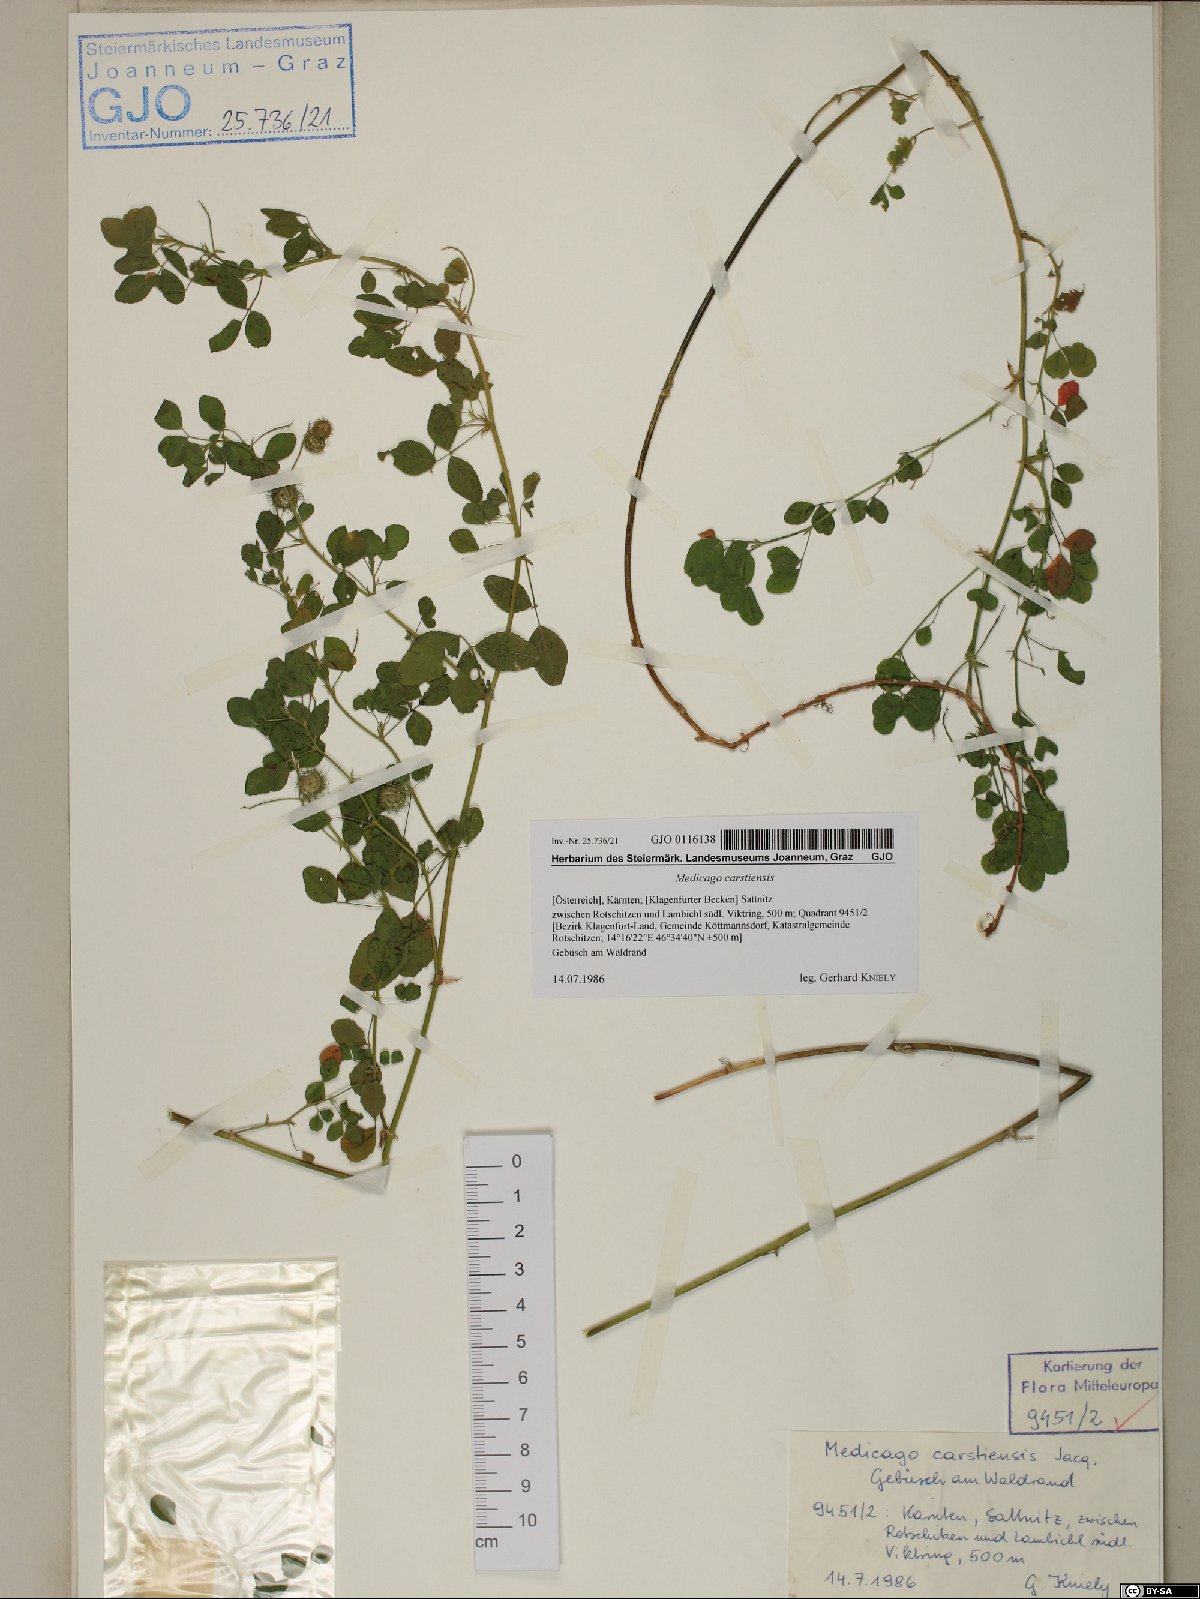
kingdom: Plantae
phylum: Tracheophyta
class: Magnoliopsida
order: Fabales
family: Fabaceae
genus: Medicago
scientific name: Medicago carstiensis
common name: Creeping-rooted medic
